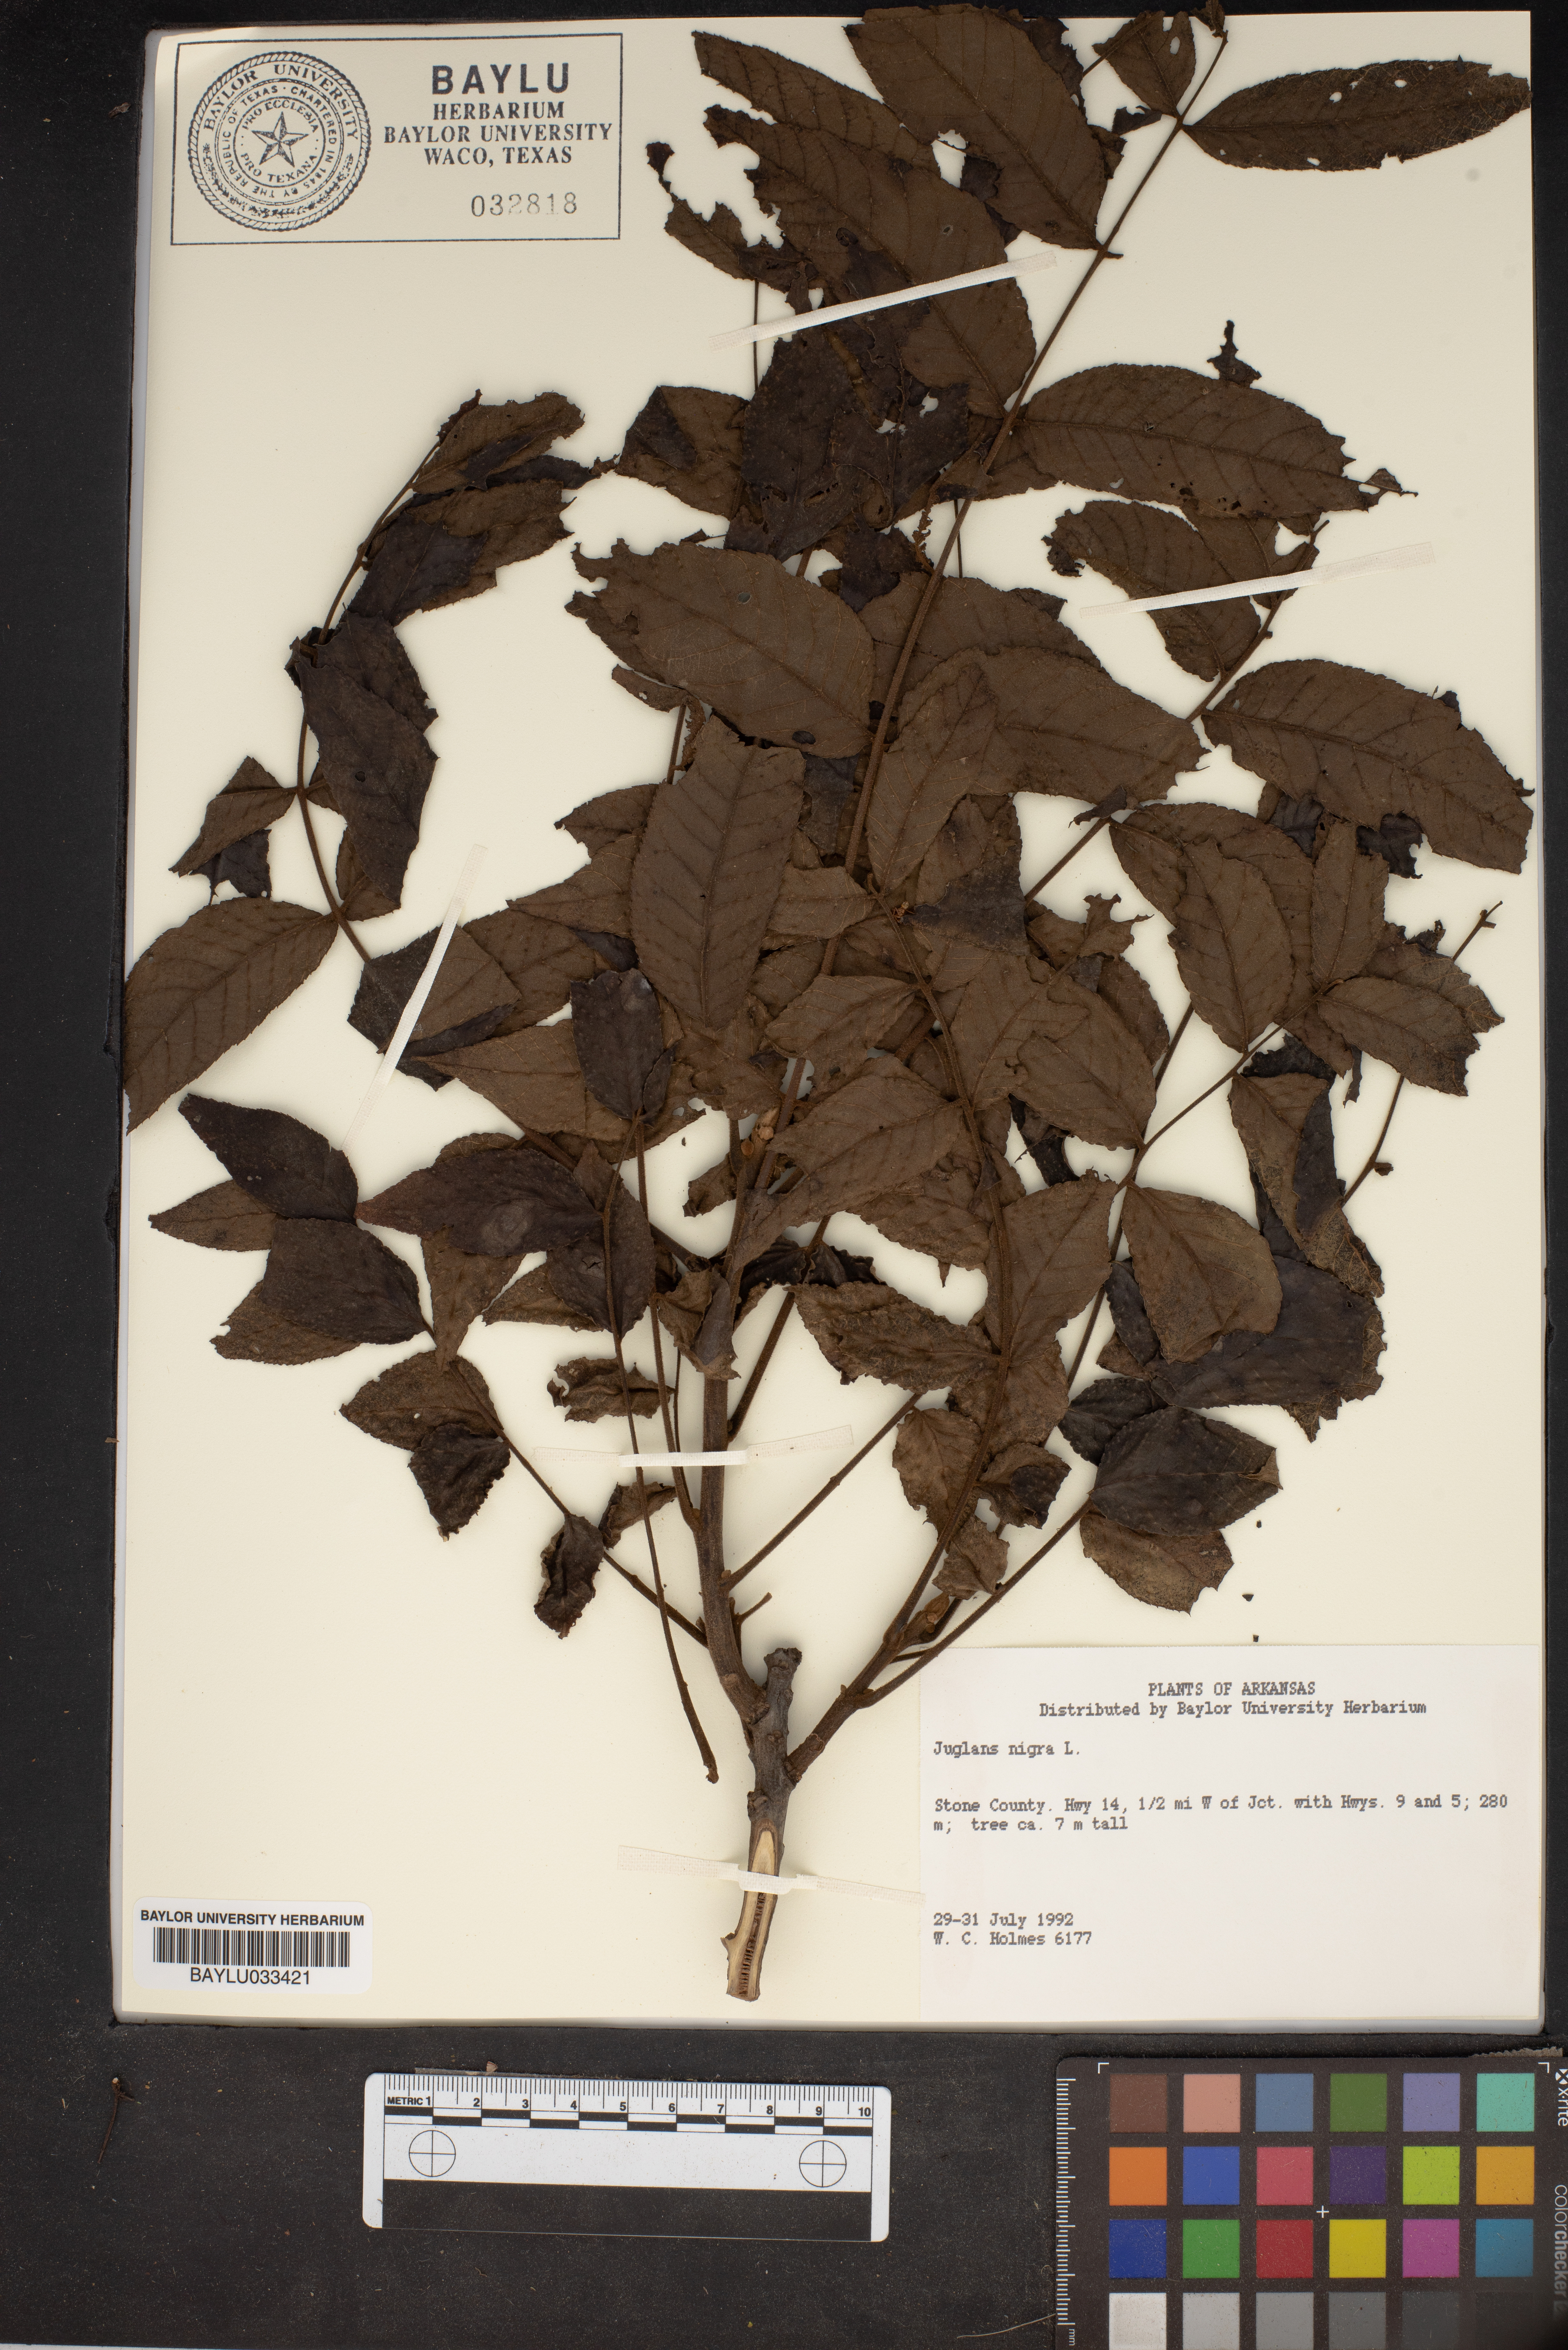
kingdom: Plantae
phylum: Tracheophyta
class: Magnoliopsida
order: Fagales
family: Juglandaceae
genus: Juglans
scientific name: Juglans nigra
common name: Black walnut
